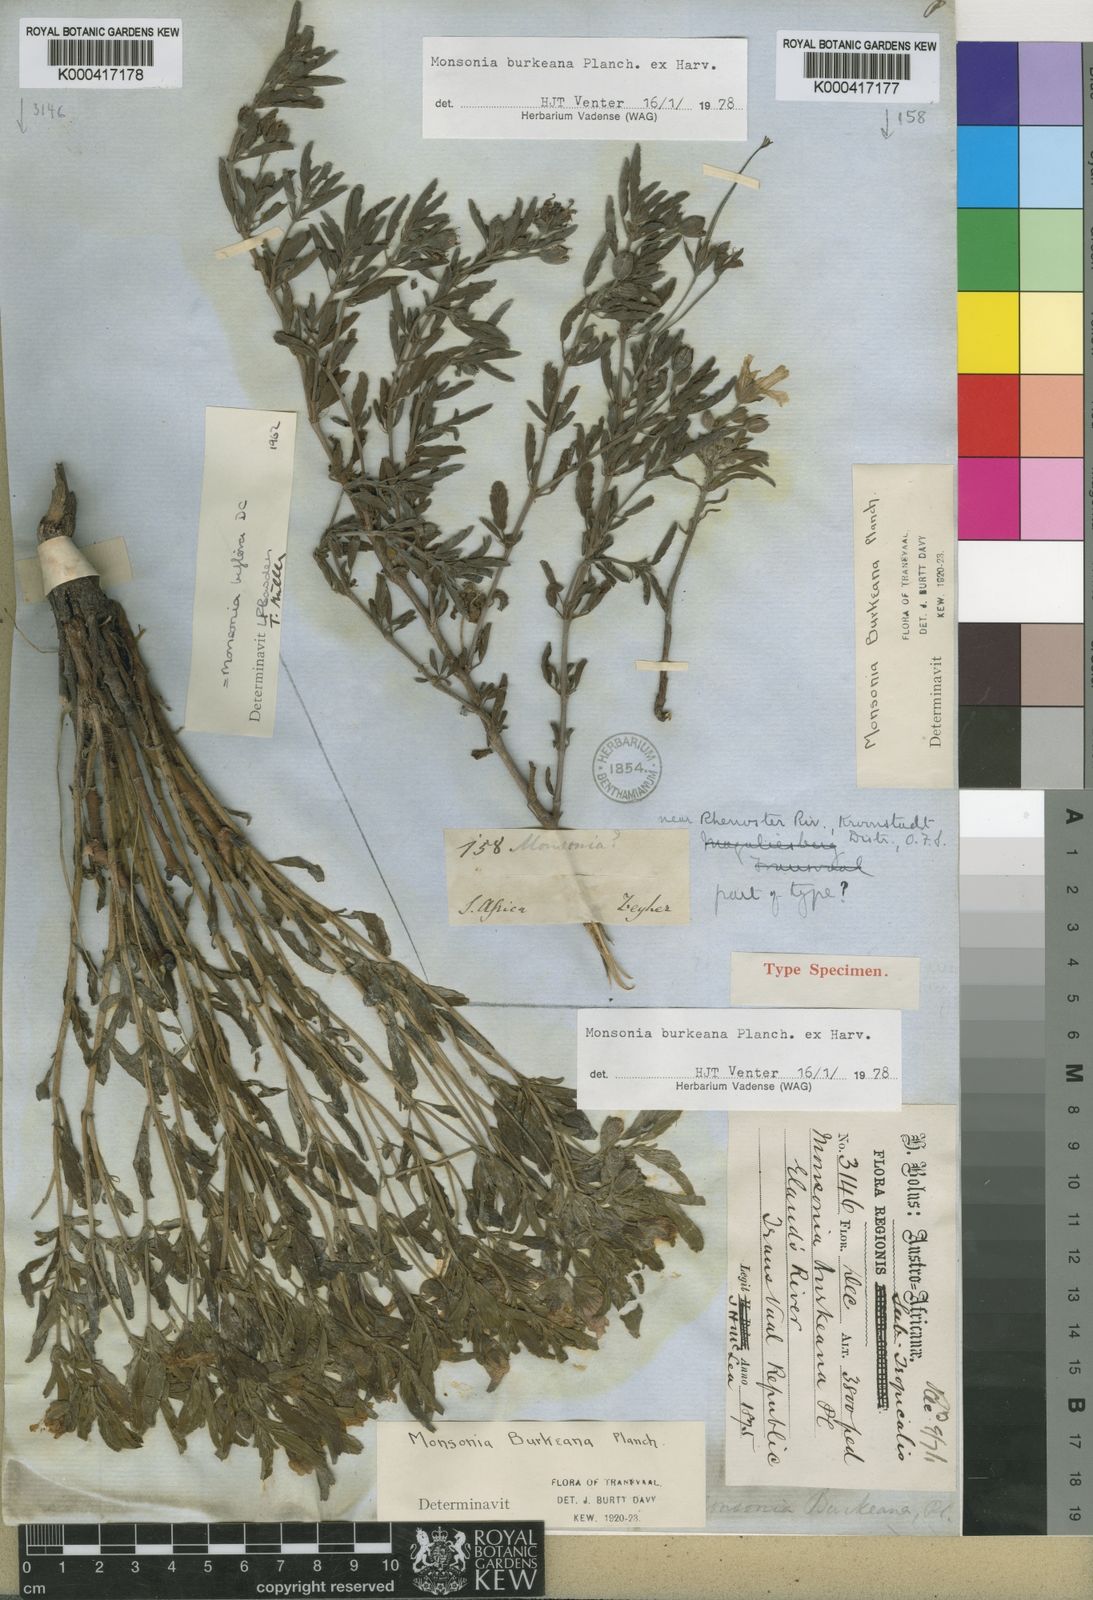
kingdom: Plantae
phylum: Tracheophyta
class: Magnoliopsida
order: Geraniales
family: Geraniaceae
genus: Monsonia
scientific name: Monsonia biflora
